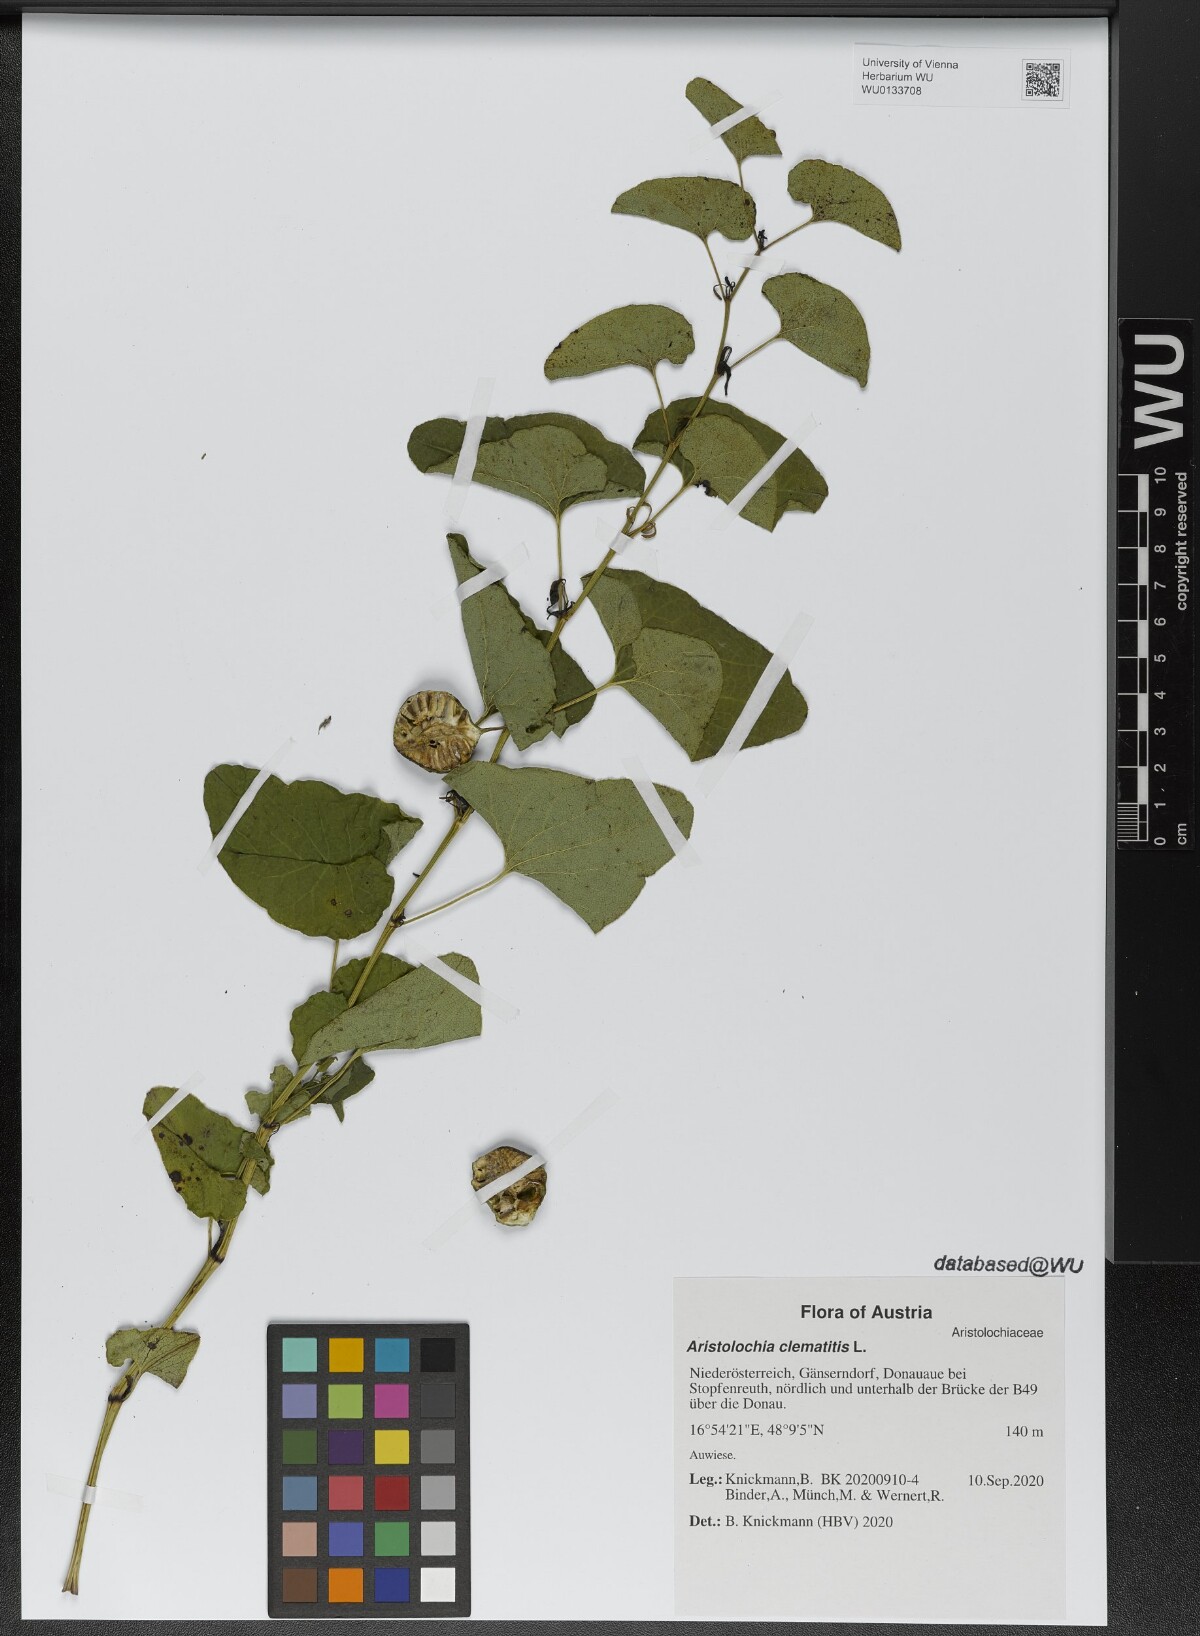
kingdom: Plantae
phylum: Tracheophyta
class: Magnoliopsida
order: Piperales
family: Aristolochiaceae
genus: Aristolochia
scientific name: Aristolochia clematitis
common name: Birthwort
